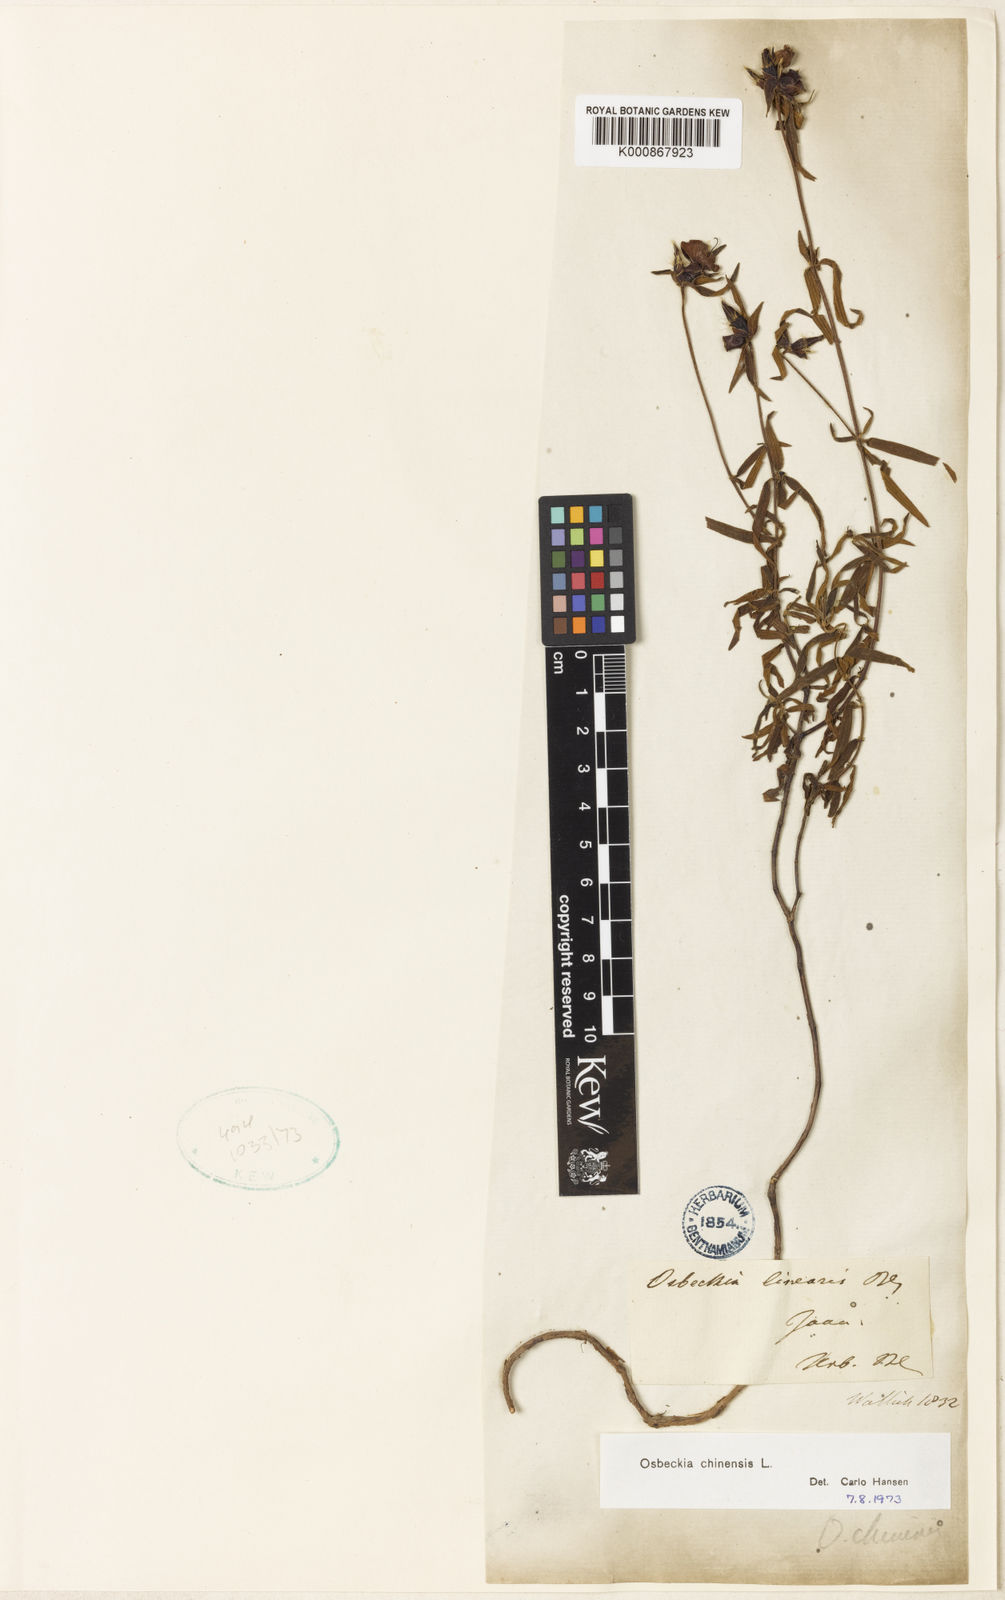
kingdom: Plantae
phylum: Tracheophyta
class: Magnoliopsida
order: Myrtales
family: Melastomataceae
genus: Osbeckia
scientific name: Osbeckia chinensis
